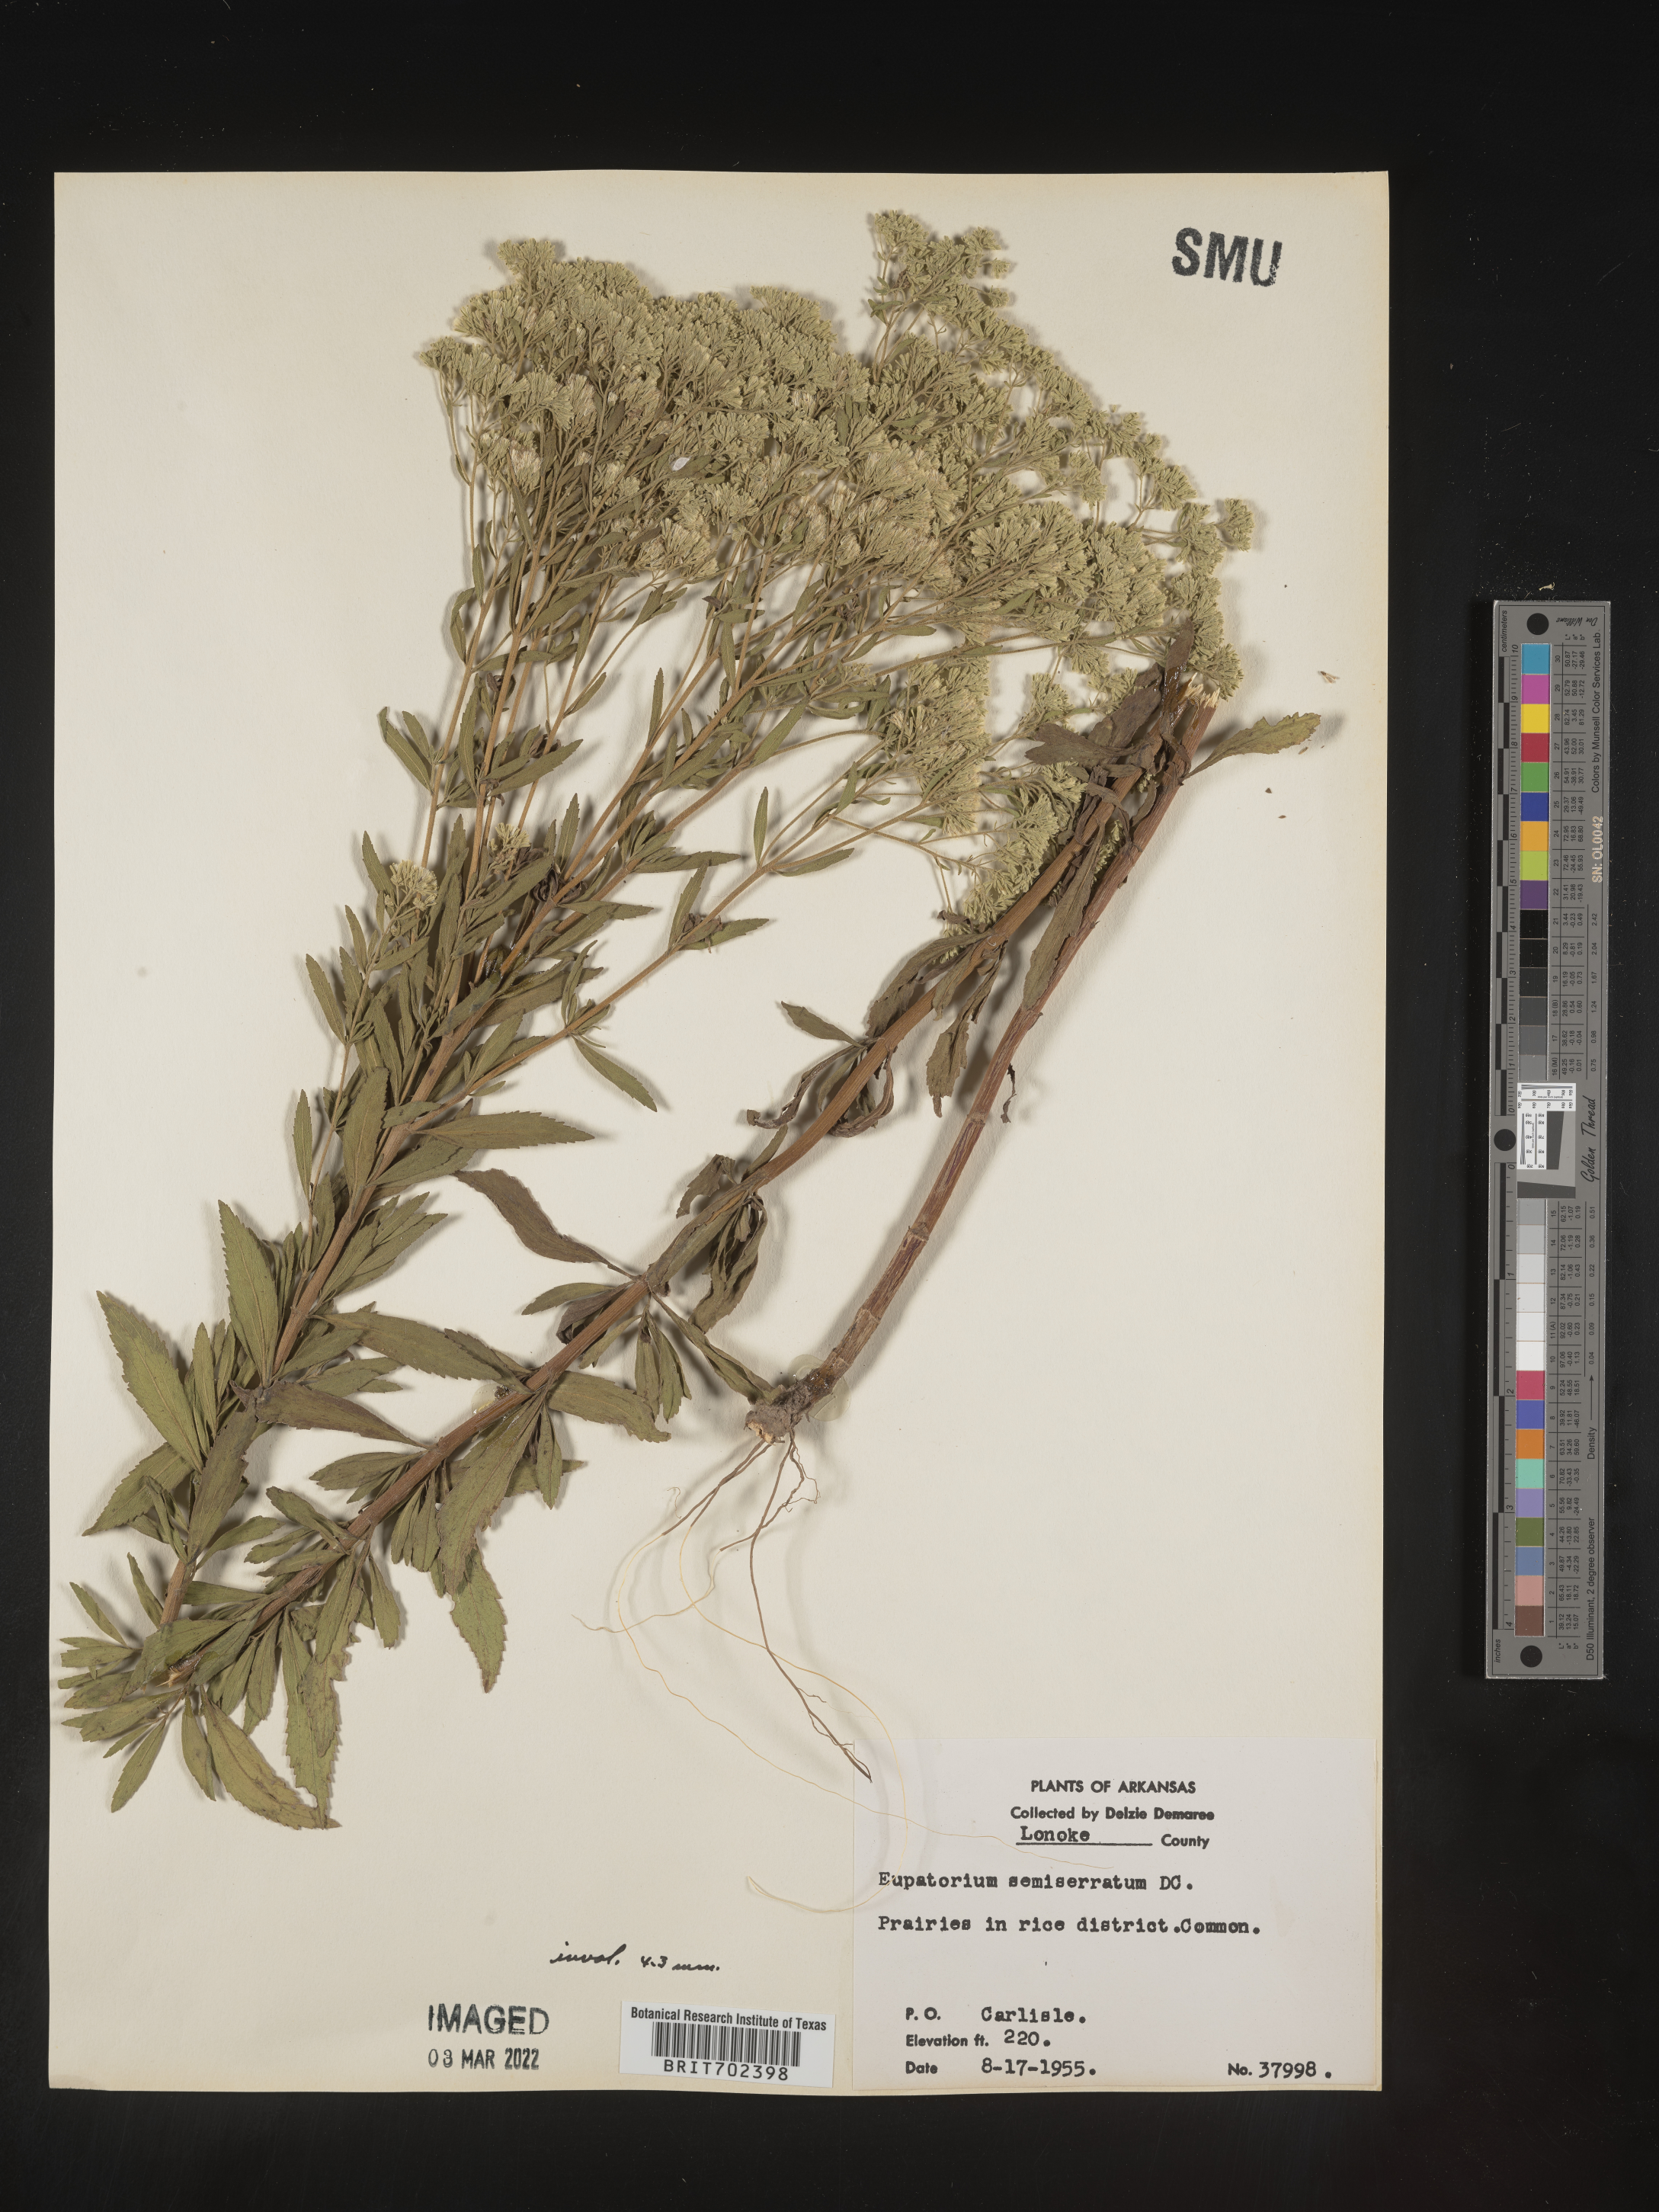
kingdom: Plantae
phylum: Tracheophyta
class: Magnoliopsida
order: Asterales
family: Asteraceae
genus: Eupatorium
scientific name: Eupatorium semiserratum
